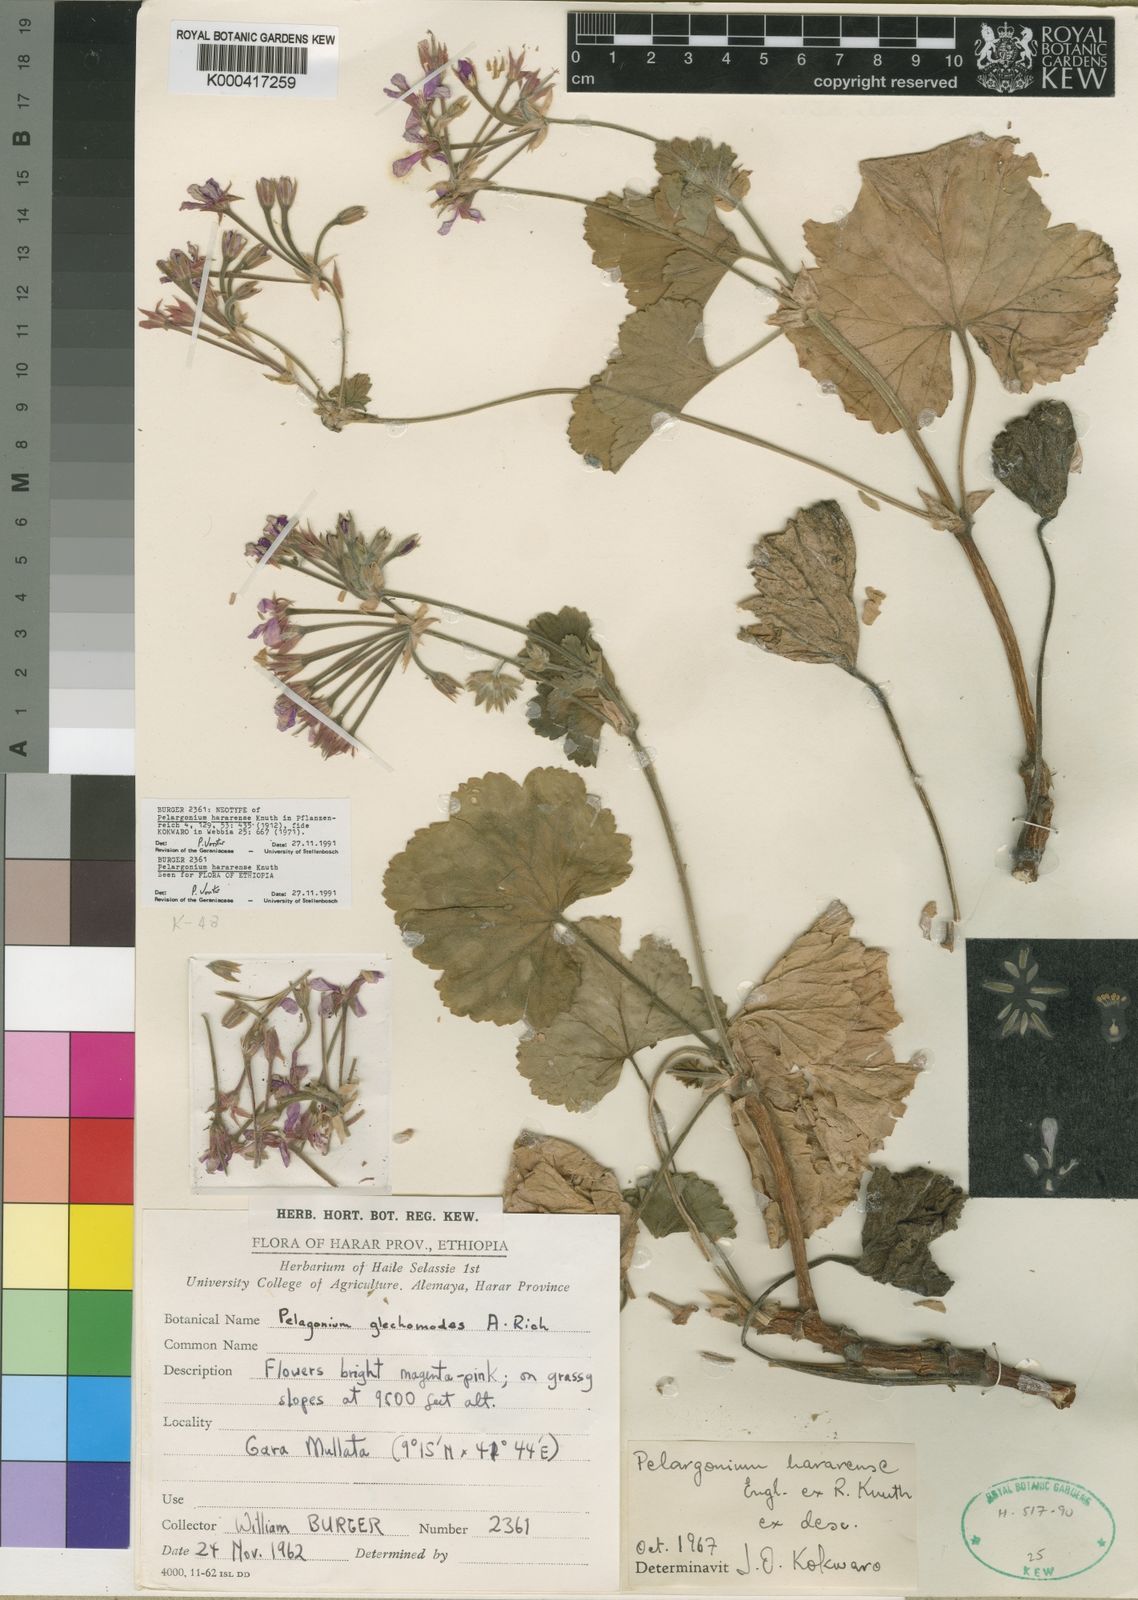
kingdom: Plantae
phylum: Tracheophyta
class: Magnoliopsida
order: Geraniales
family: Geraniaceae
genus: Pelargonium
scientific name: Pelargonium
